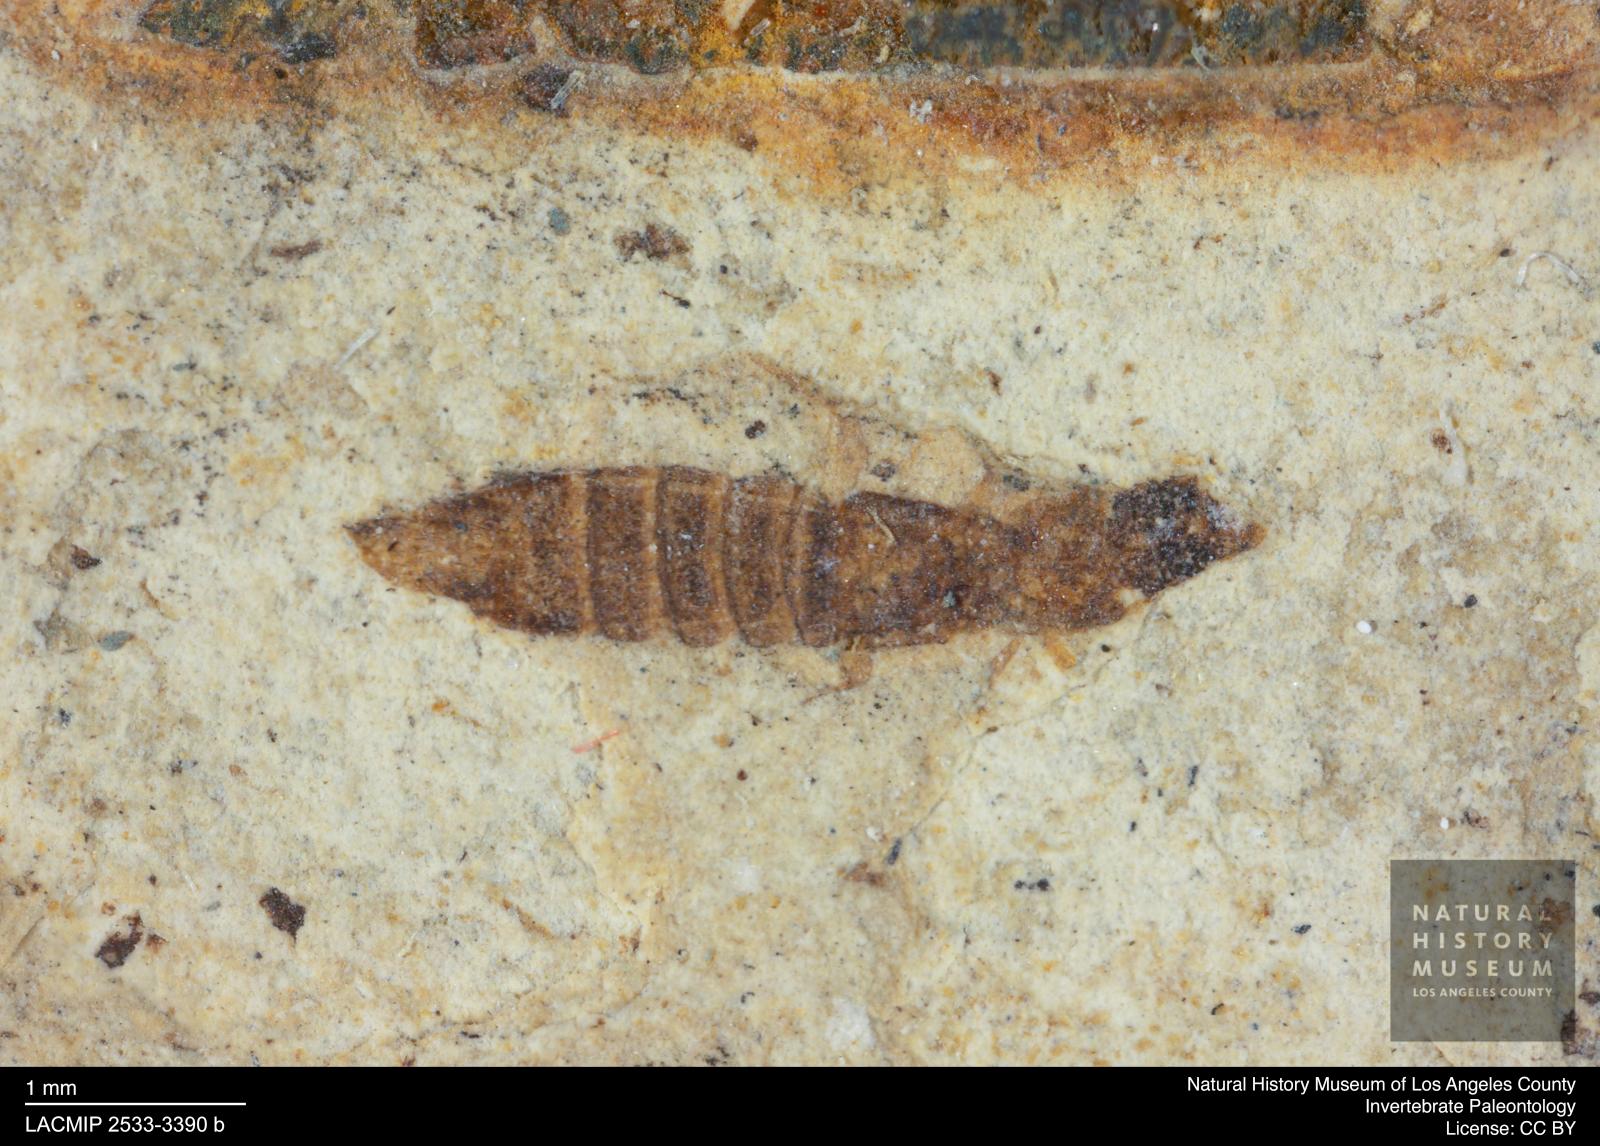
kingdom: Animalia
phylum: Arthropoda
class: Insecta
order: Coleoptera
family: Staphylinidae
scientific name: Staphylinidae
